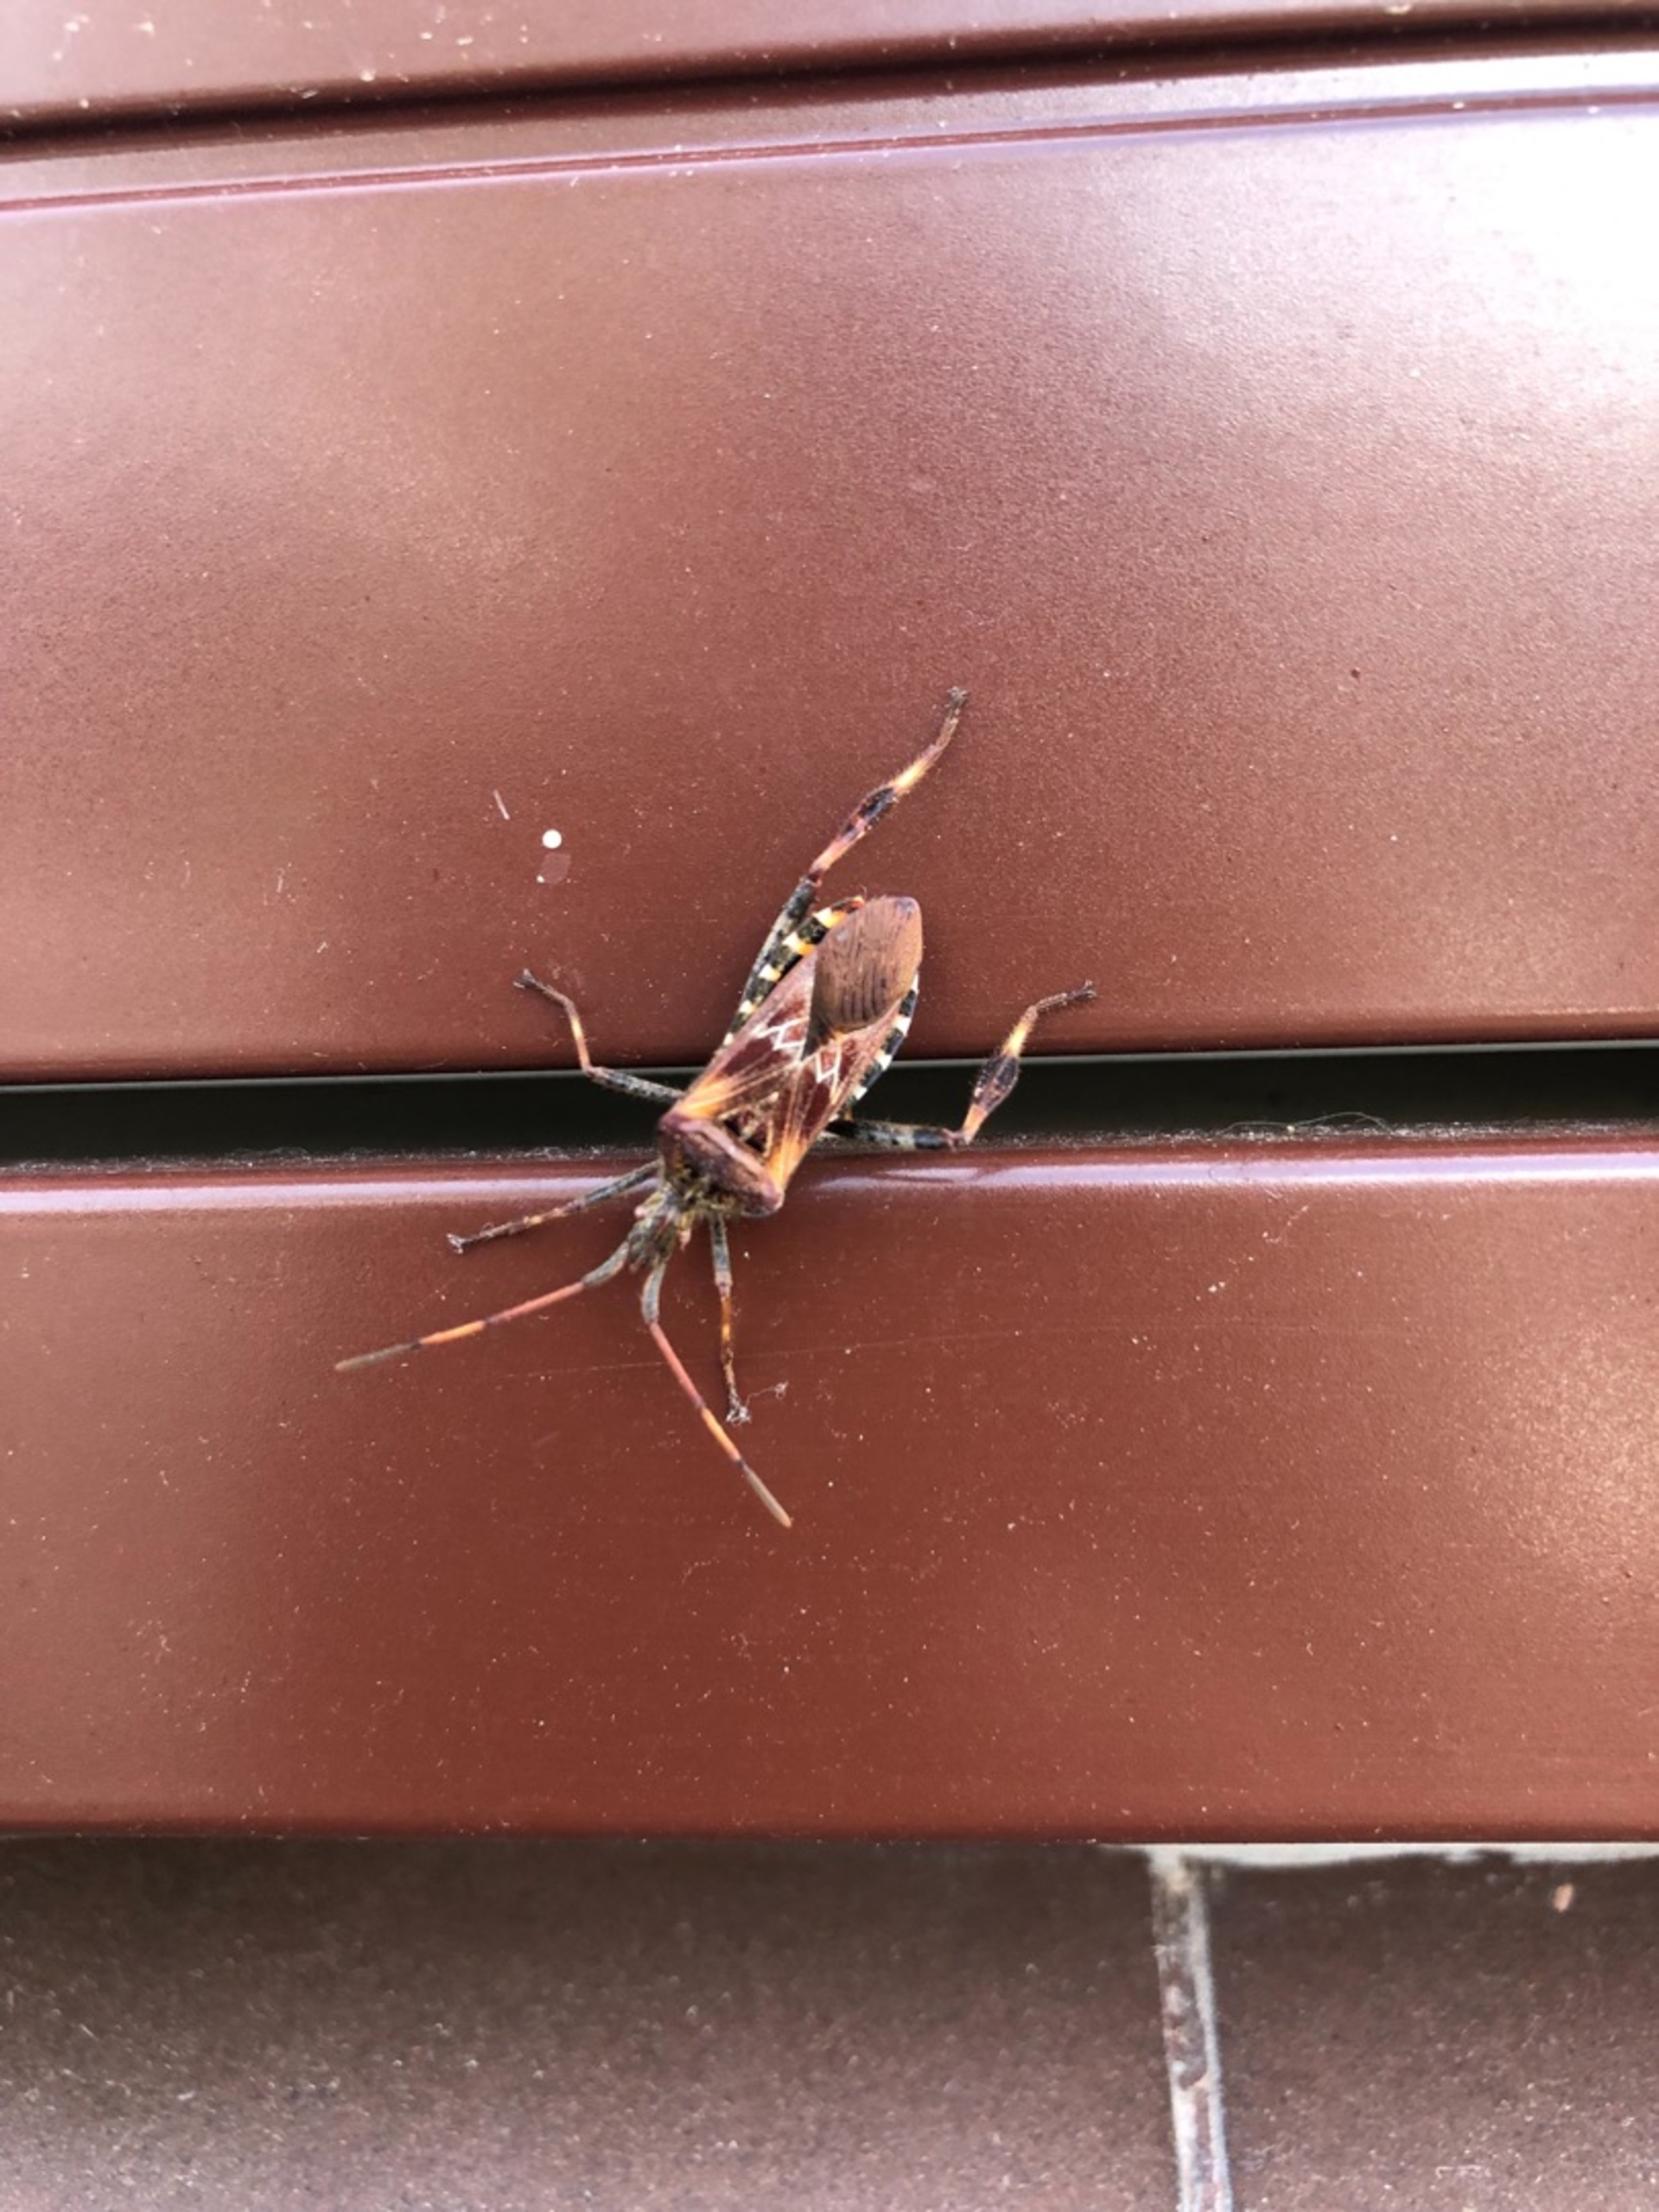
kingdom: Animalia
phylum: Arthropoda
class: Insecta
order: Hemiptera
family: Coreidae
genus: Leptoglossus
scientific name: Leptoglossus occidentalis
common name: Amerikansk fyrretæge
